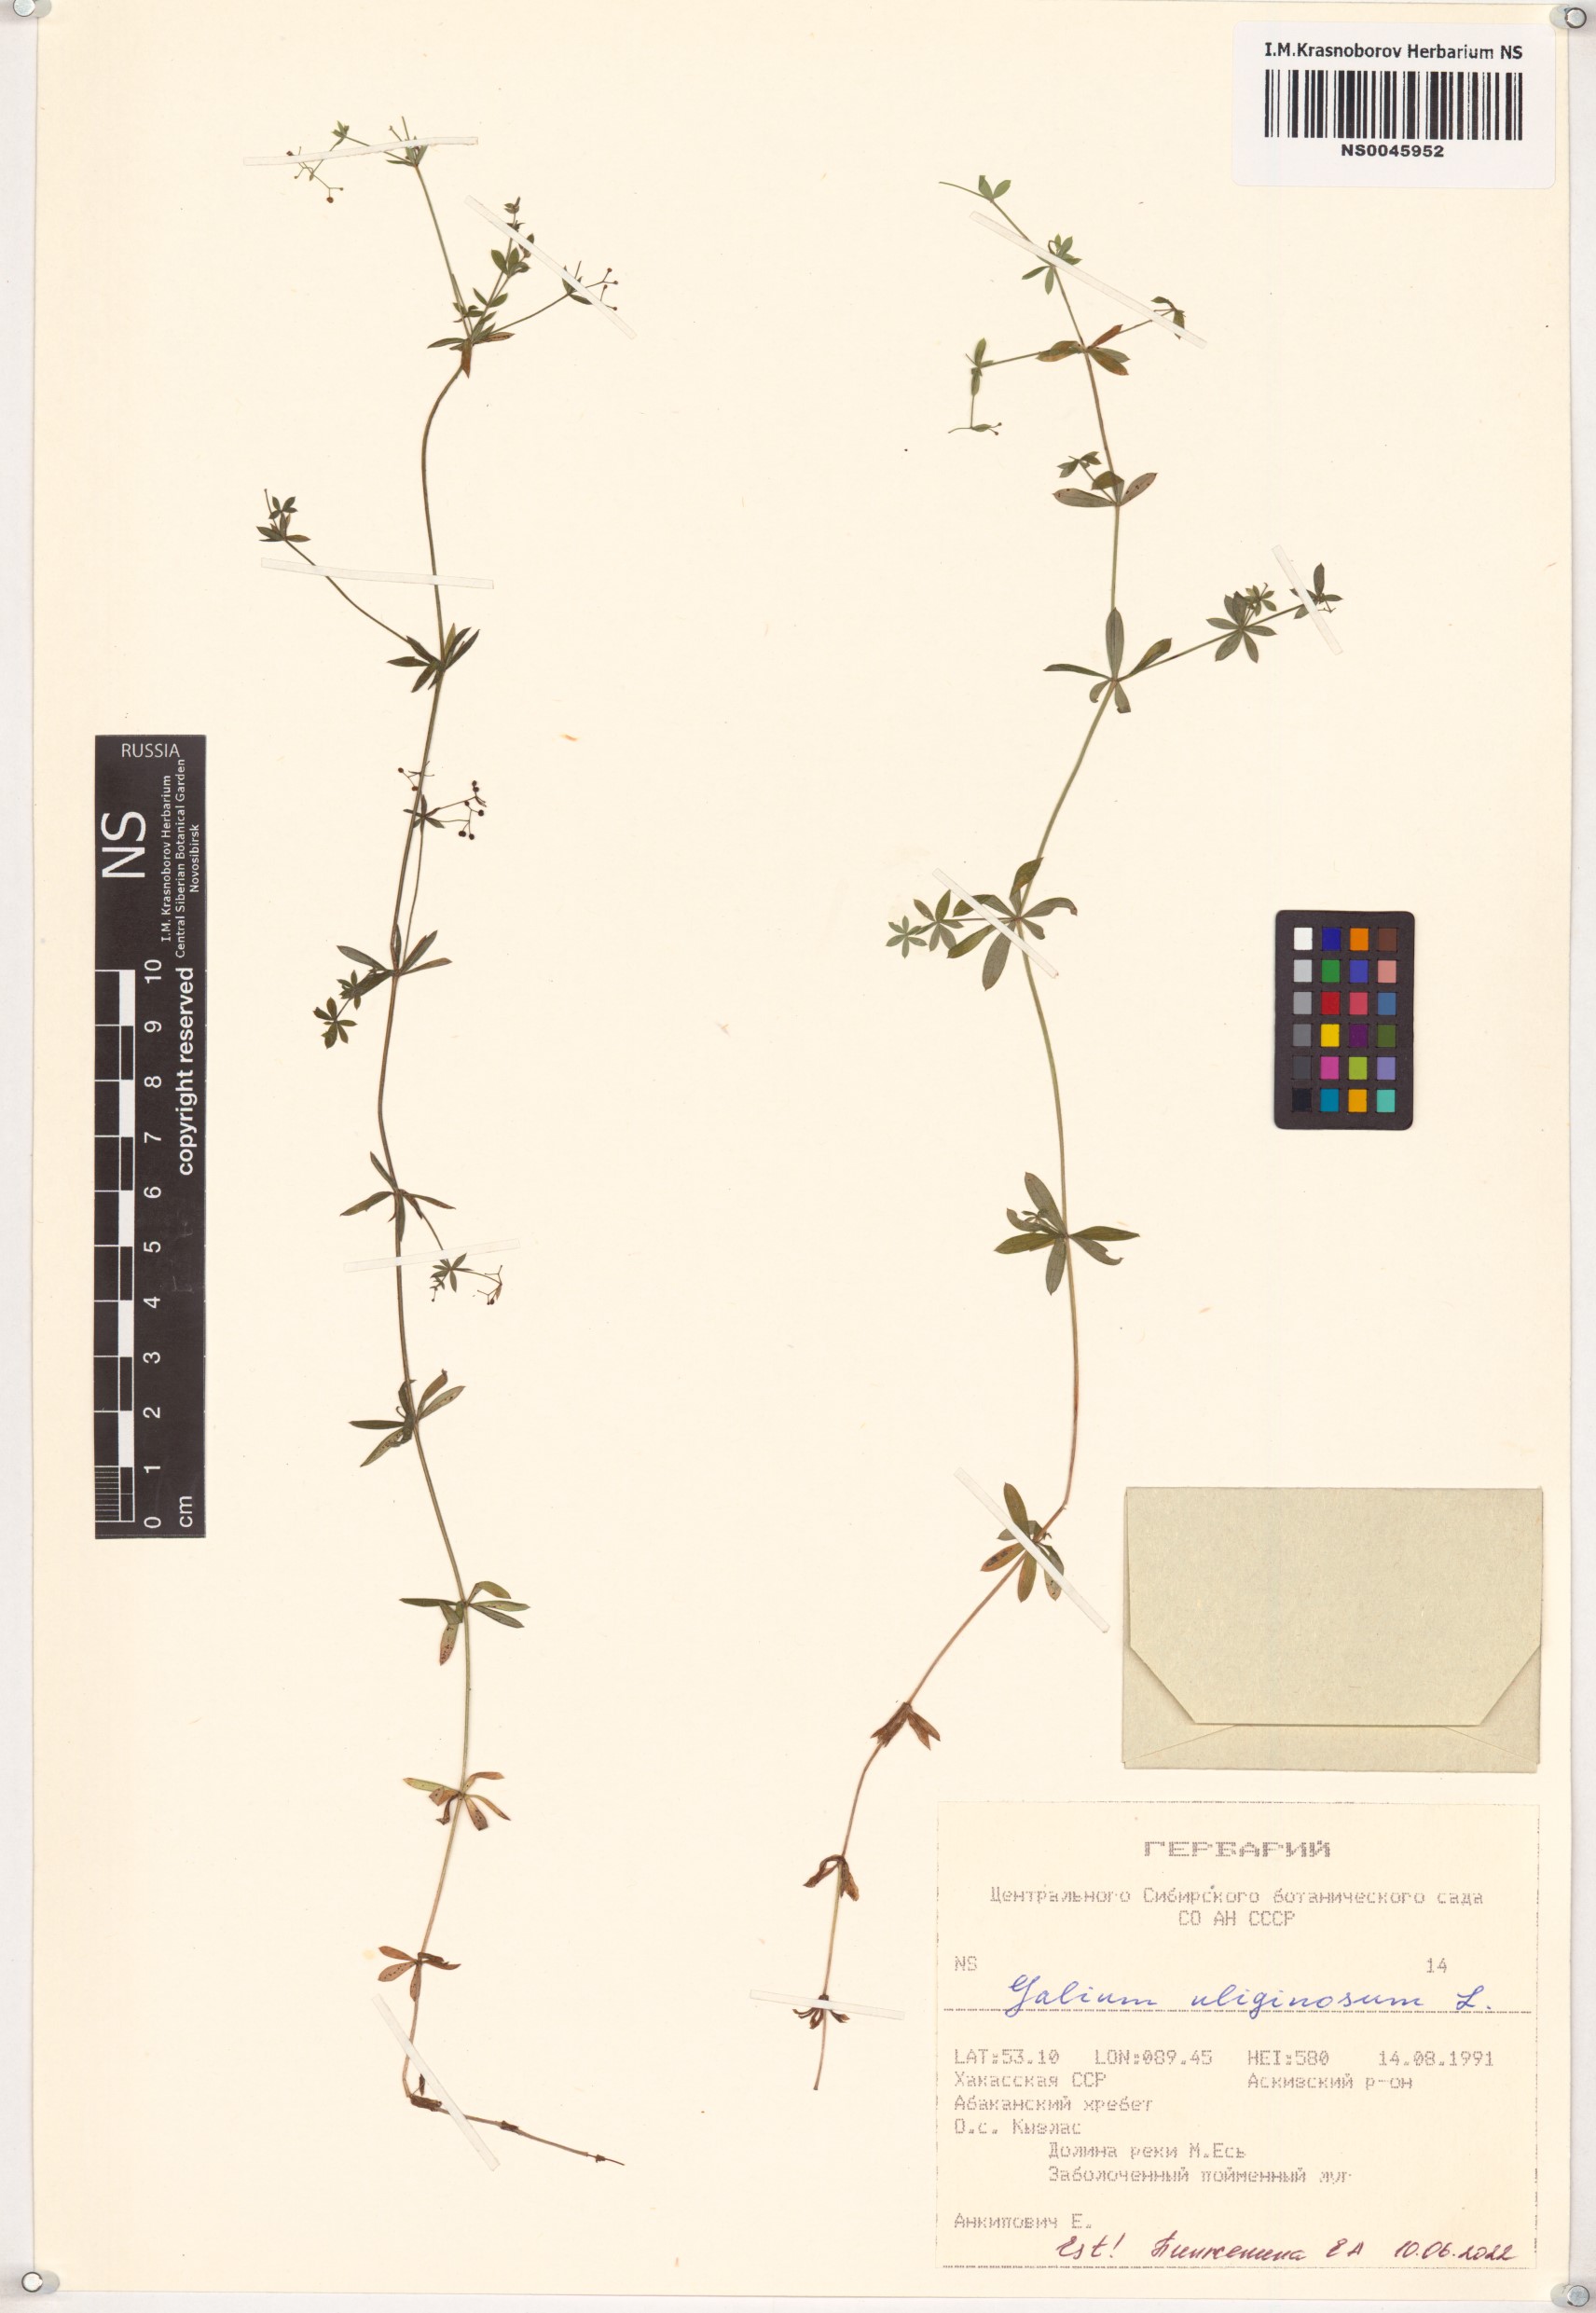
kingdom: Plantae
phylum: Tracheophyta
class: Magnoliopsida
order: Gentianales
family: Rubiaceae
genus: Galium
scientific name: Galium uliginosum
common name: Fen bedstraw
